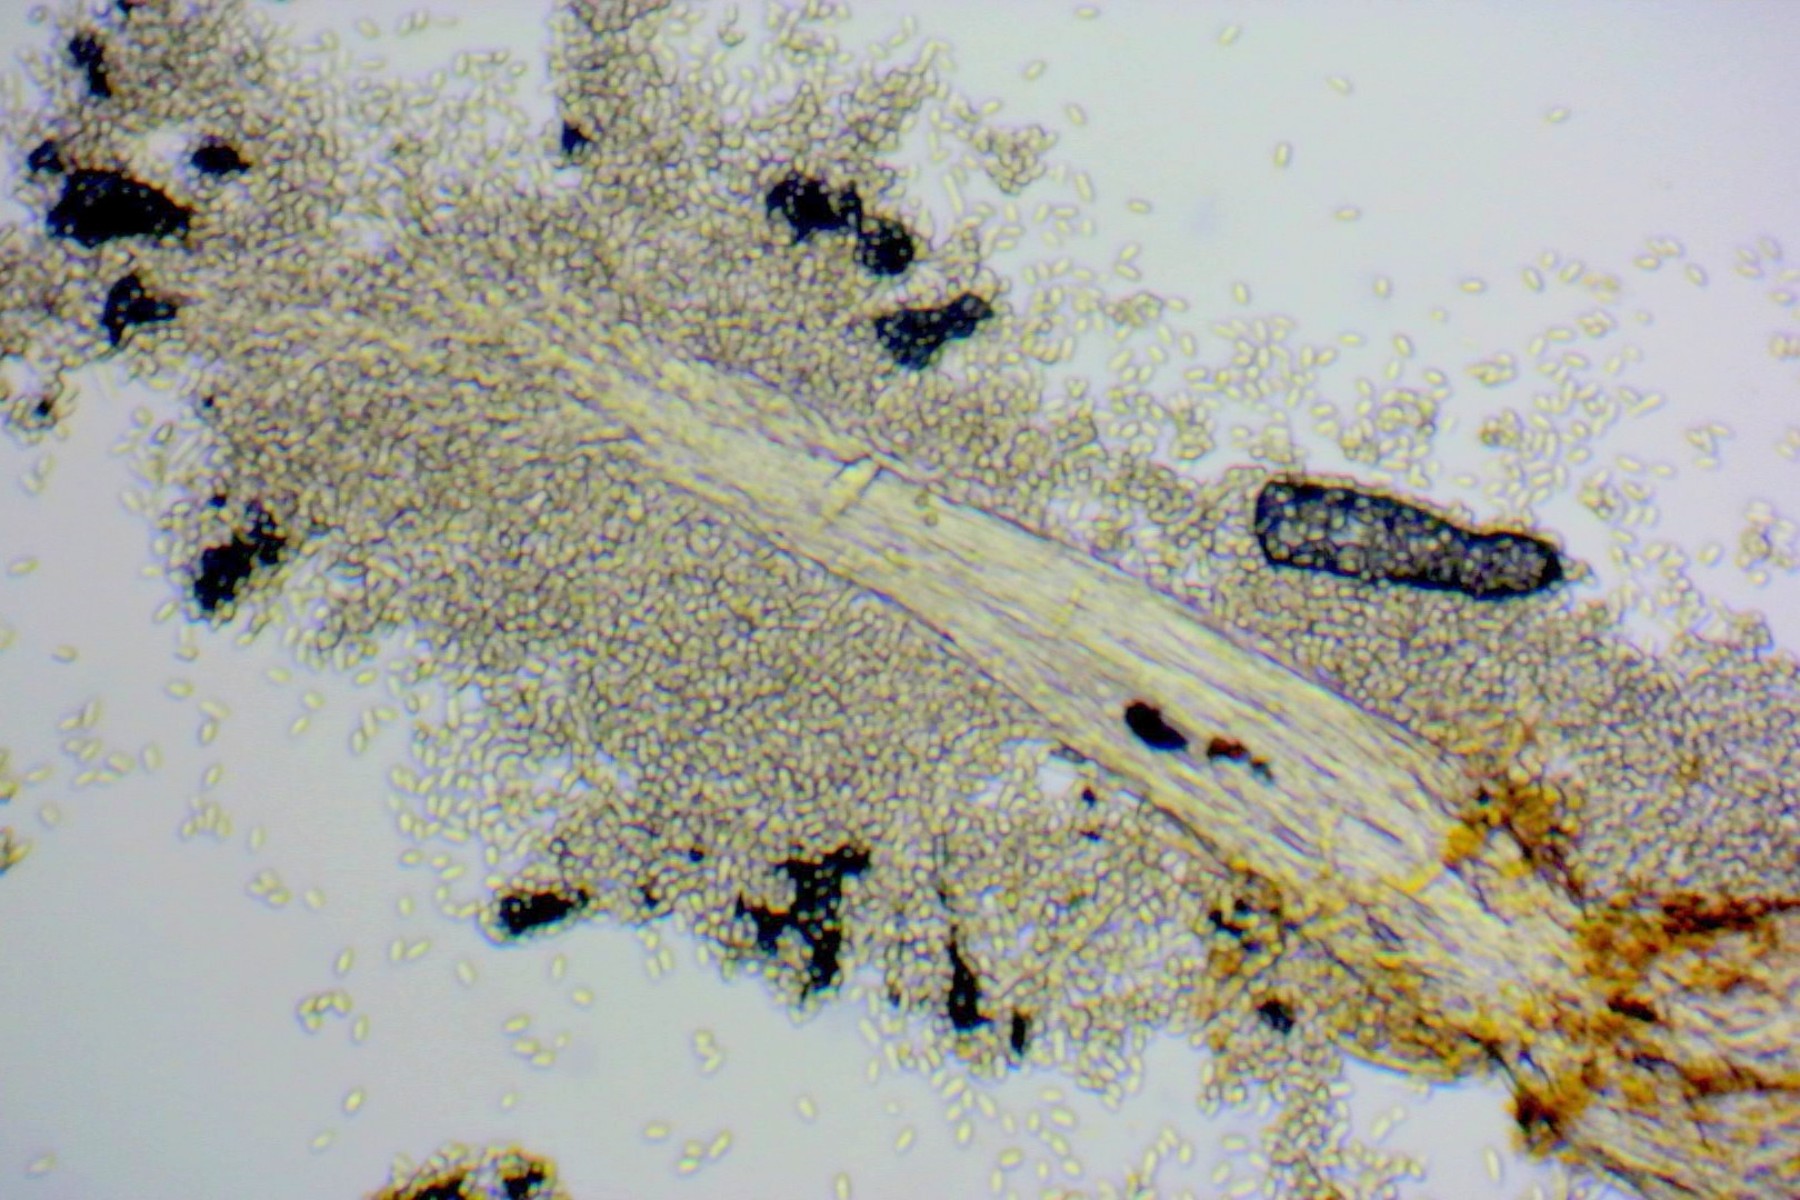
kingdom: Fungi
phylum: Ascomycota
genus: Sphaeridium
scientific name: Sphaeridium candidulum
